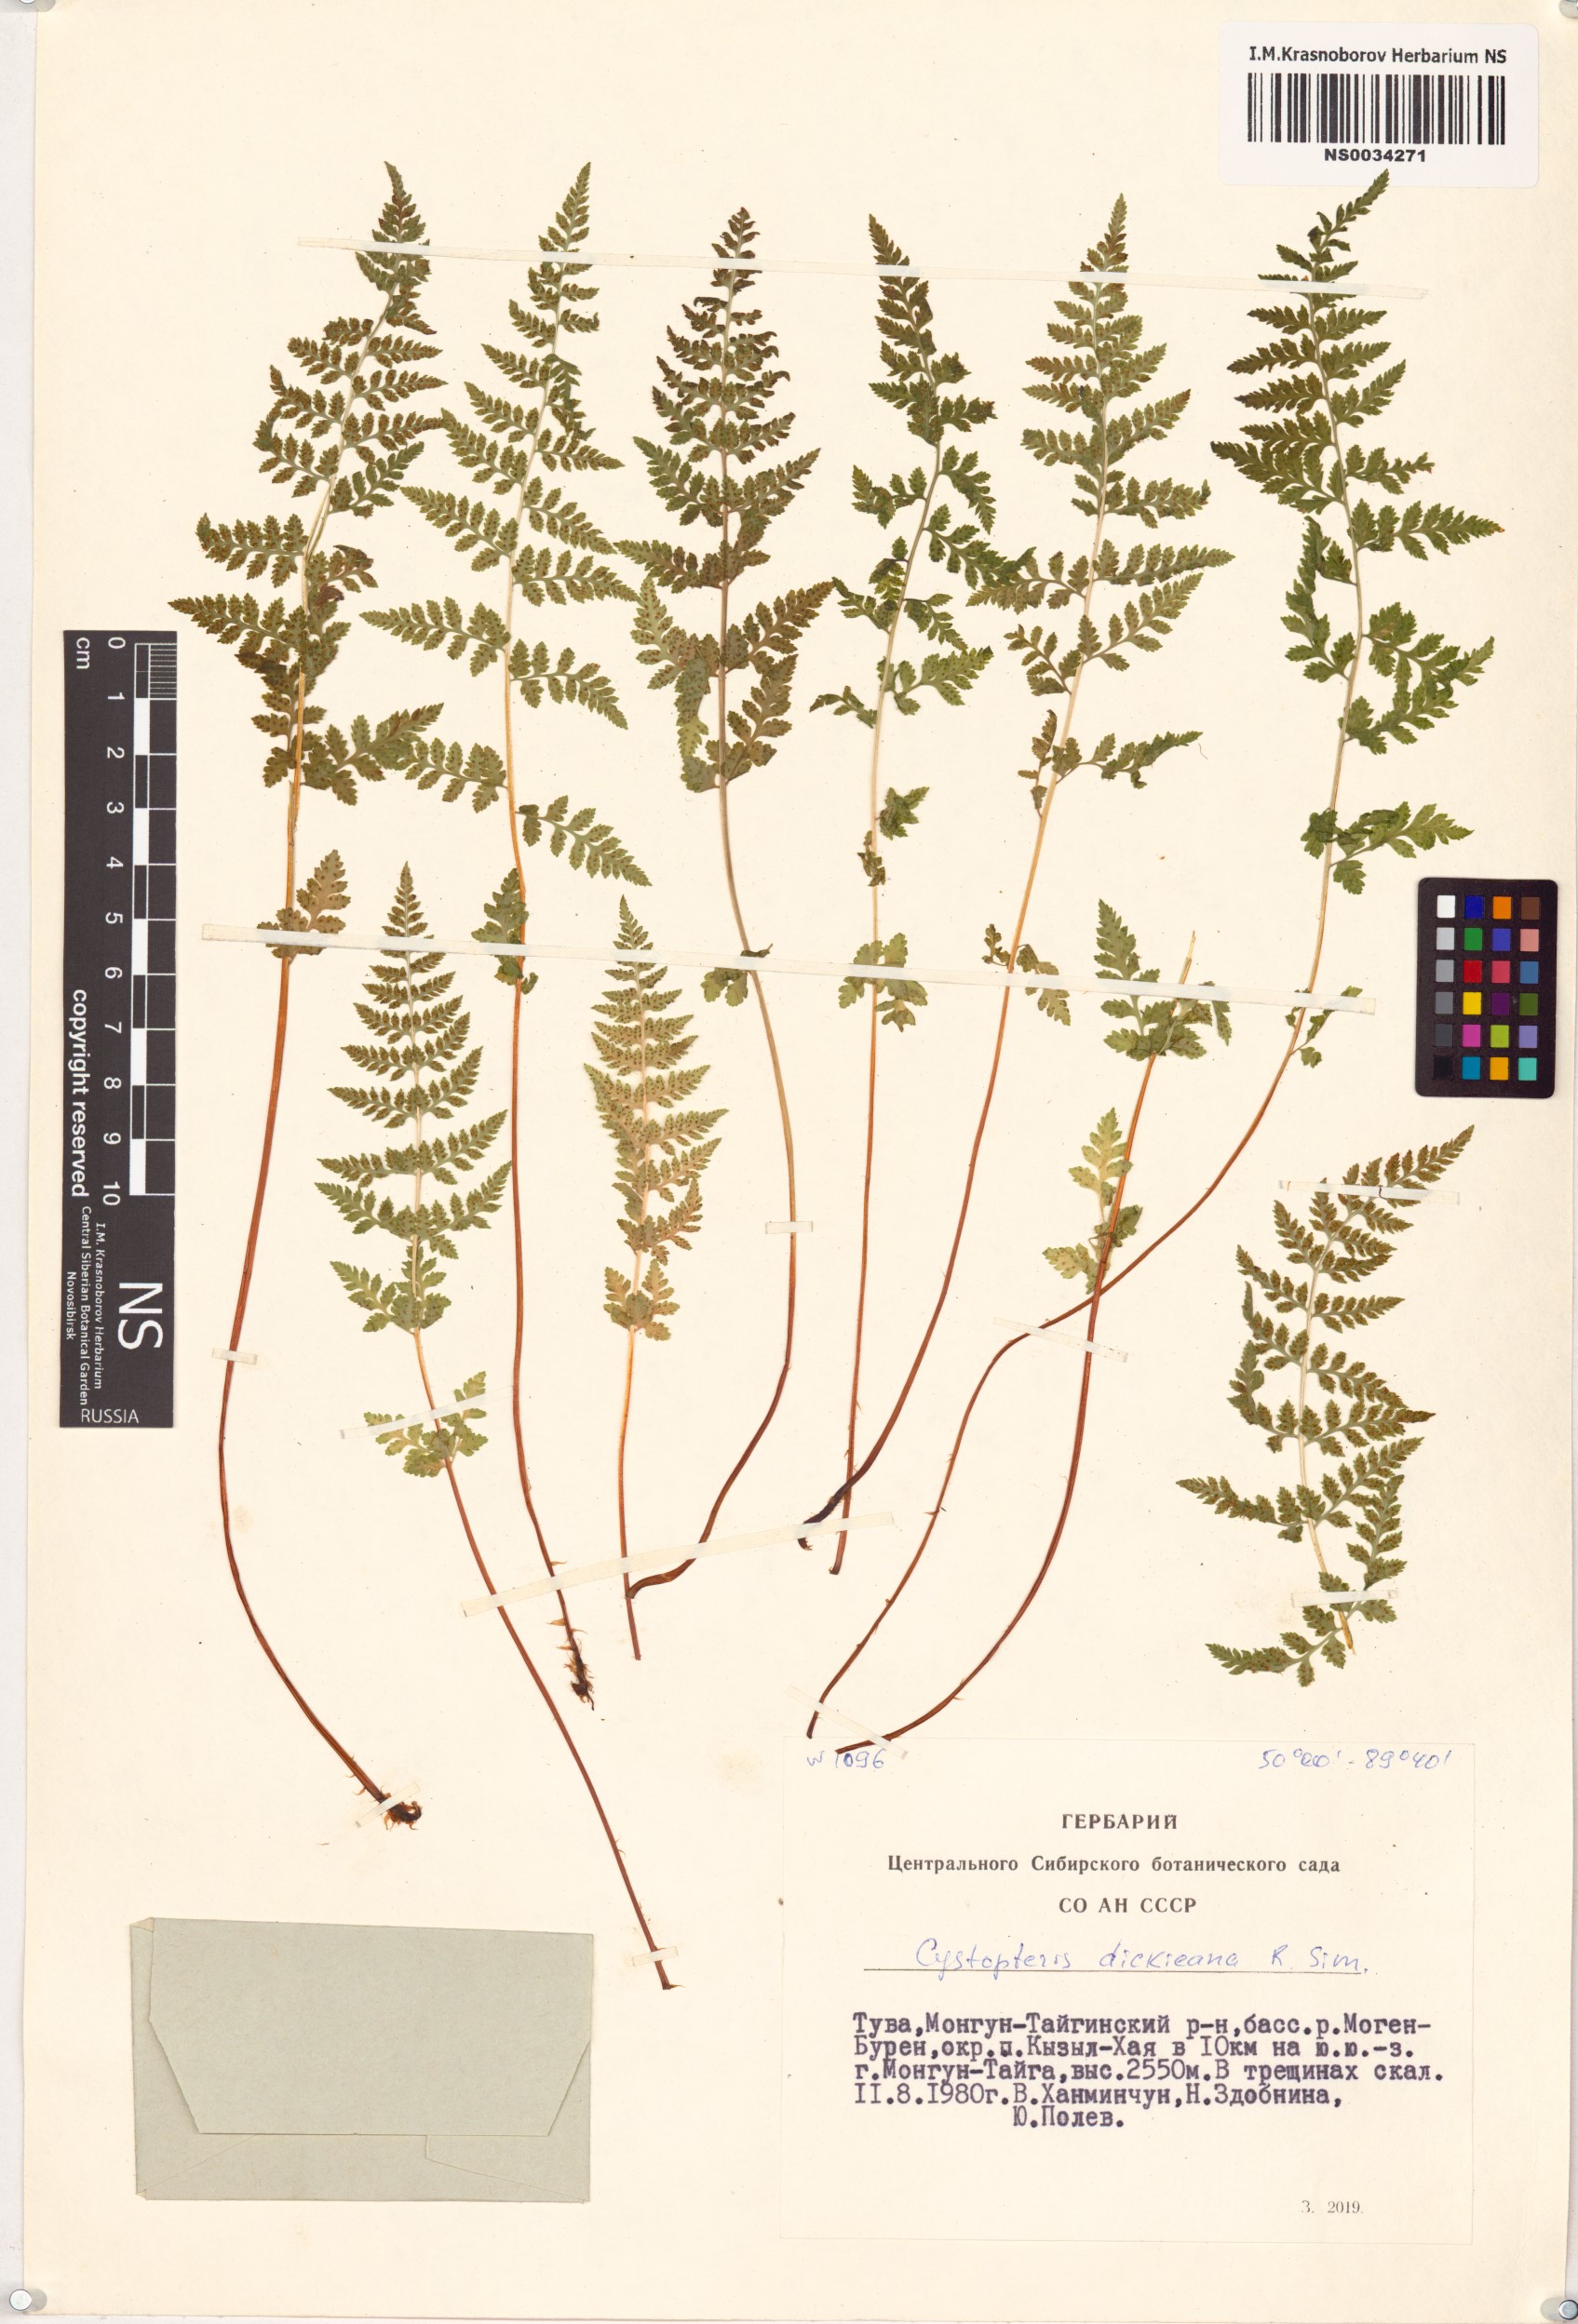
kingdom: Plantae
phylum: Tracheophyta
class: Polypodiopsida
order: Polypodiales
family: Cystopteridaceae
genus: Cystopteris
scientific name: Cystopteris dickieana
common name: Dickie's bladder-fern
